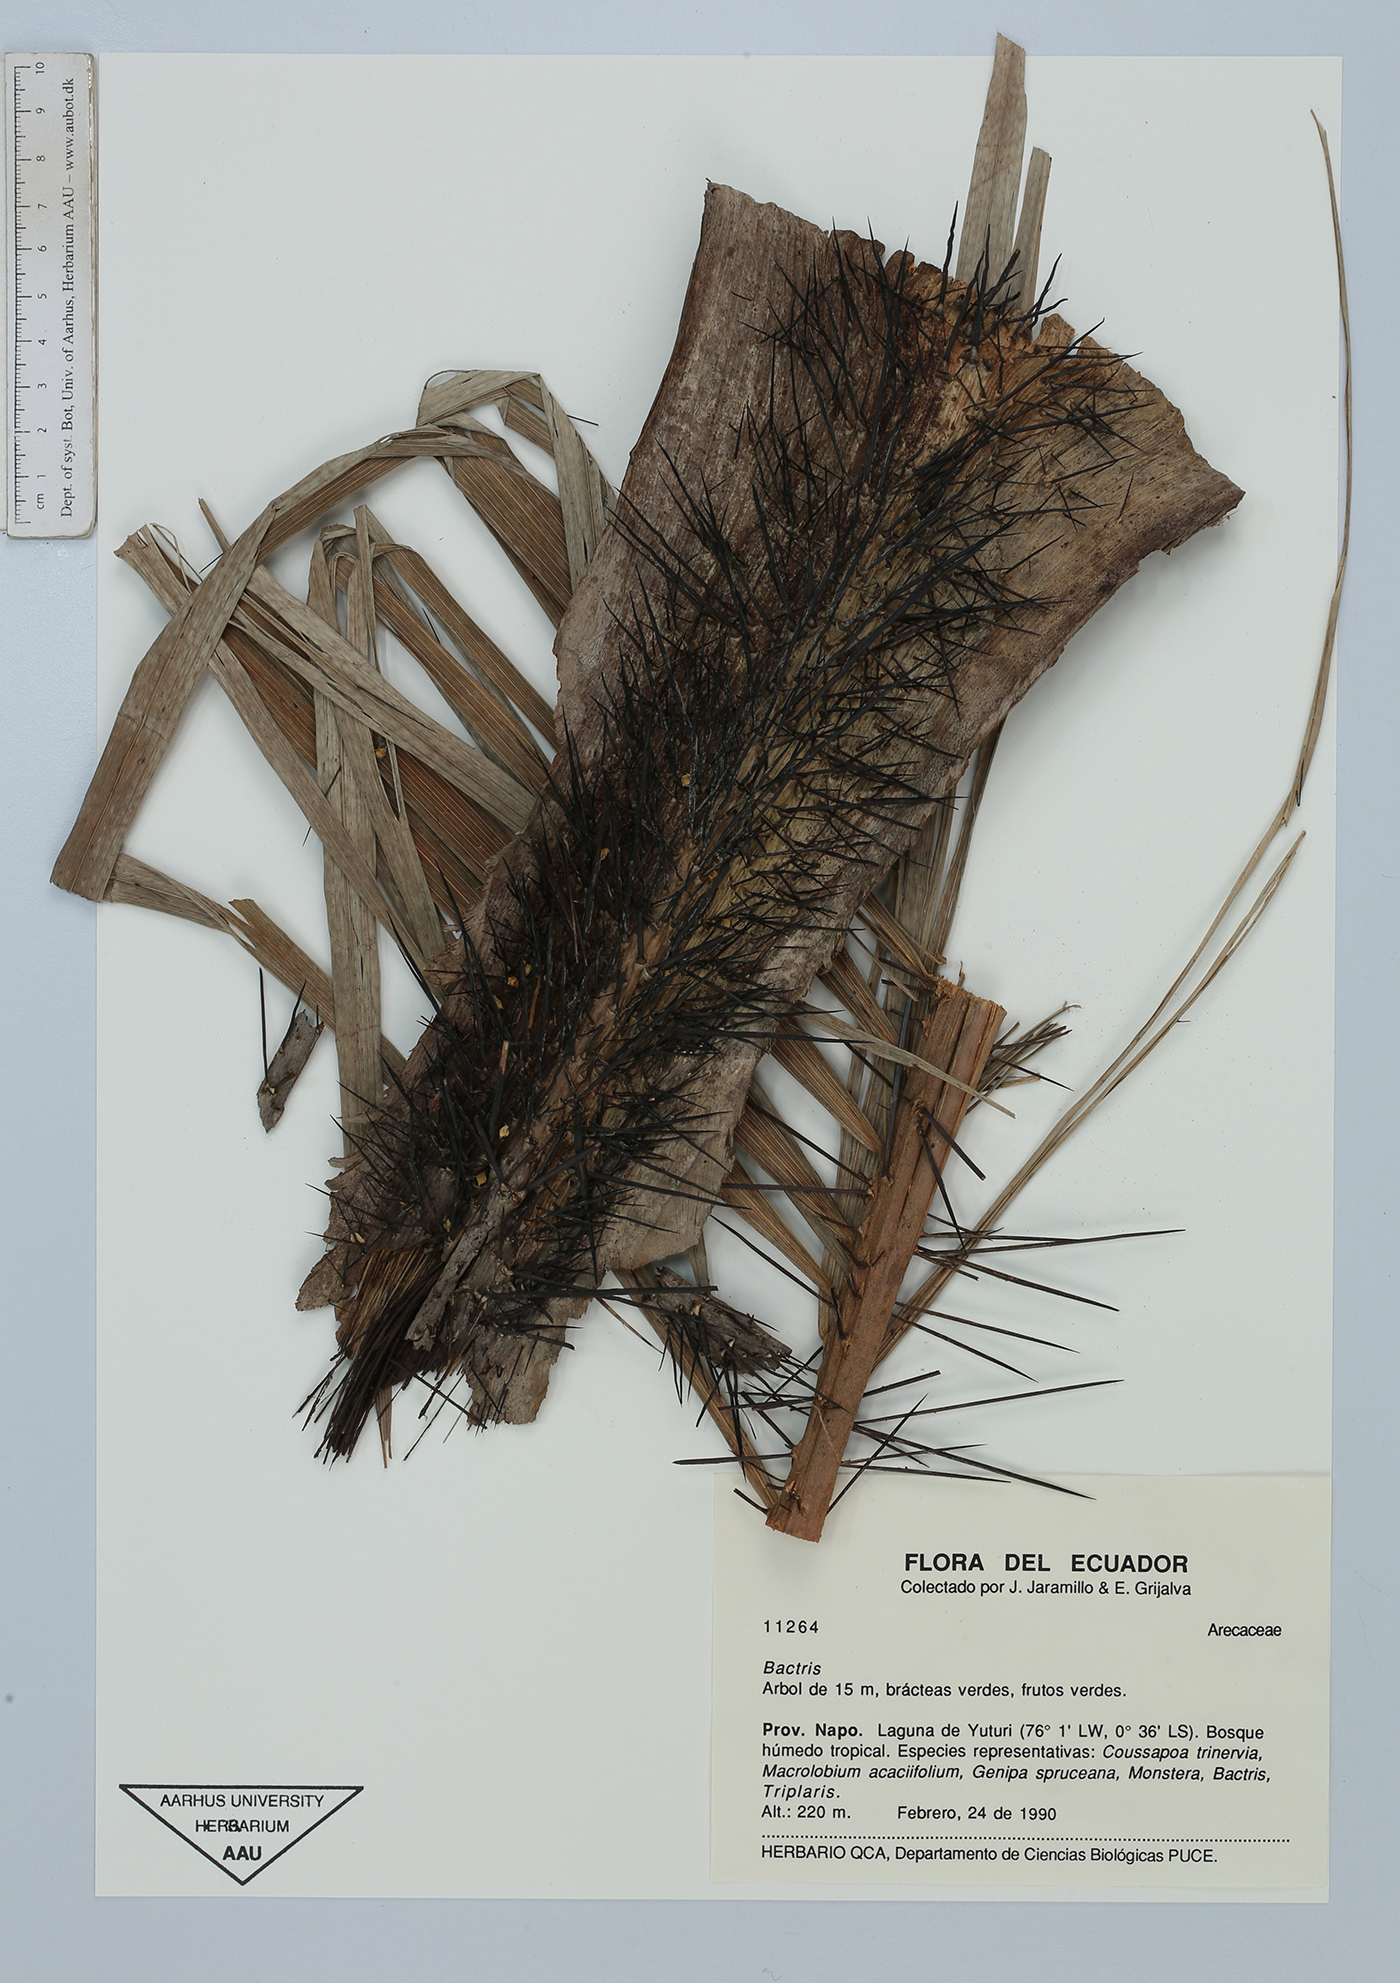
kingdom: Plantae
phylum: Tracheophyta
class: Liliopsida
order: Arecales
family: Arecaceae
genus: Bactris
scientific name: Bactris
